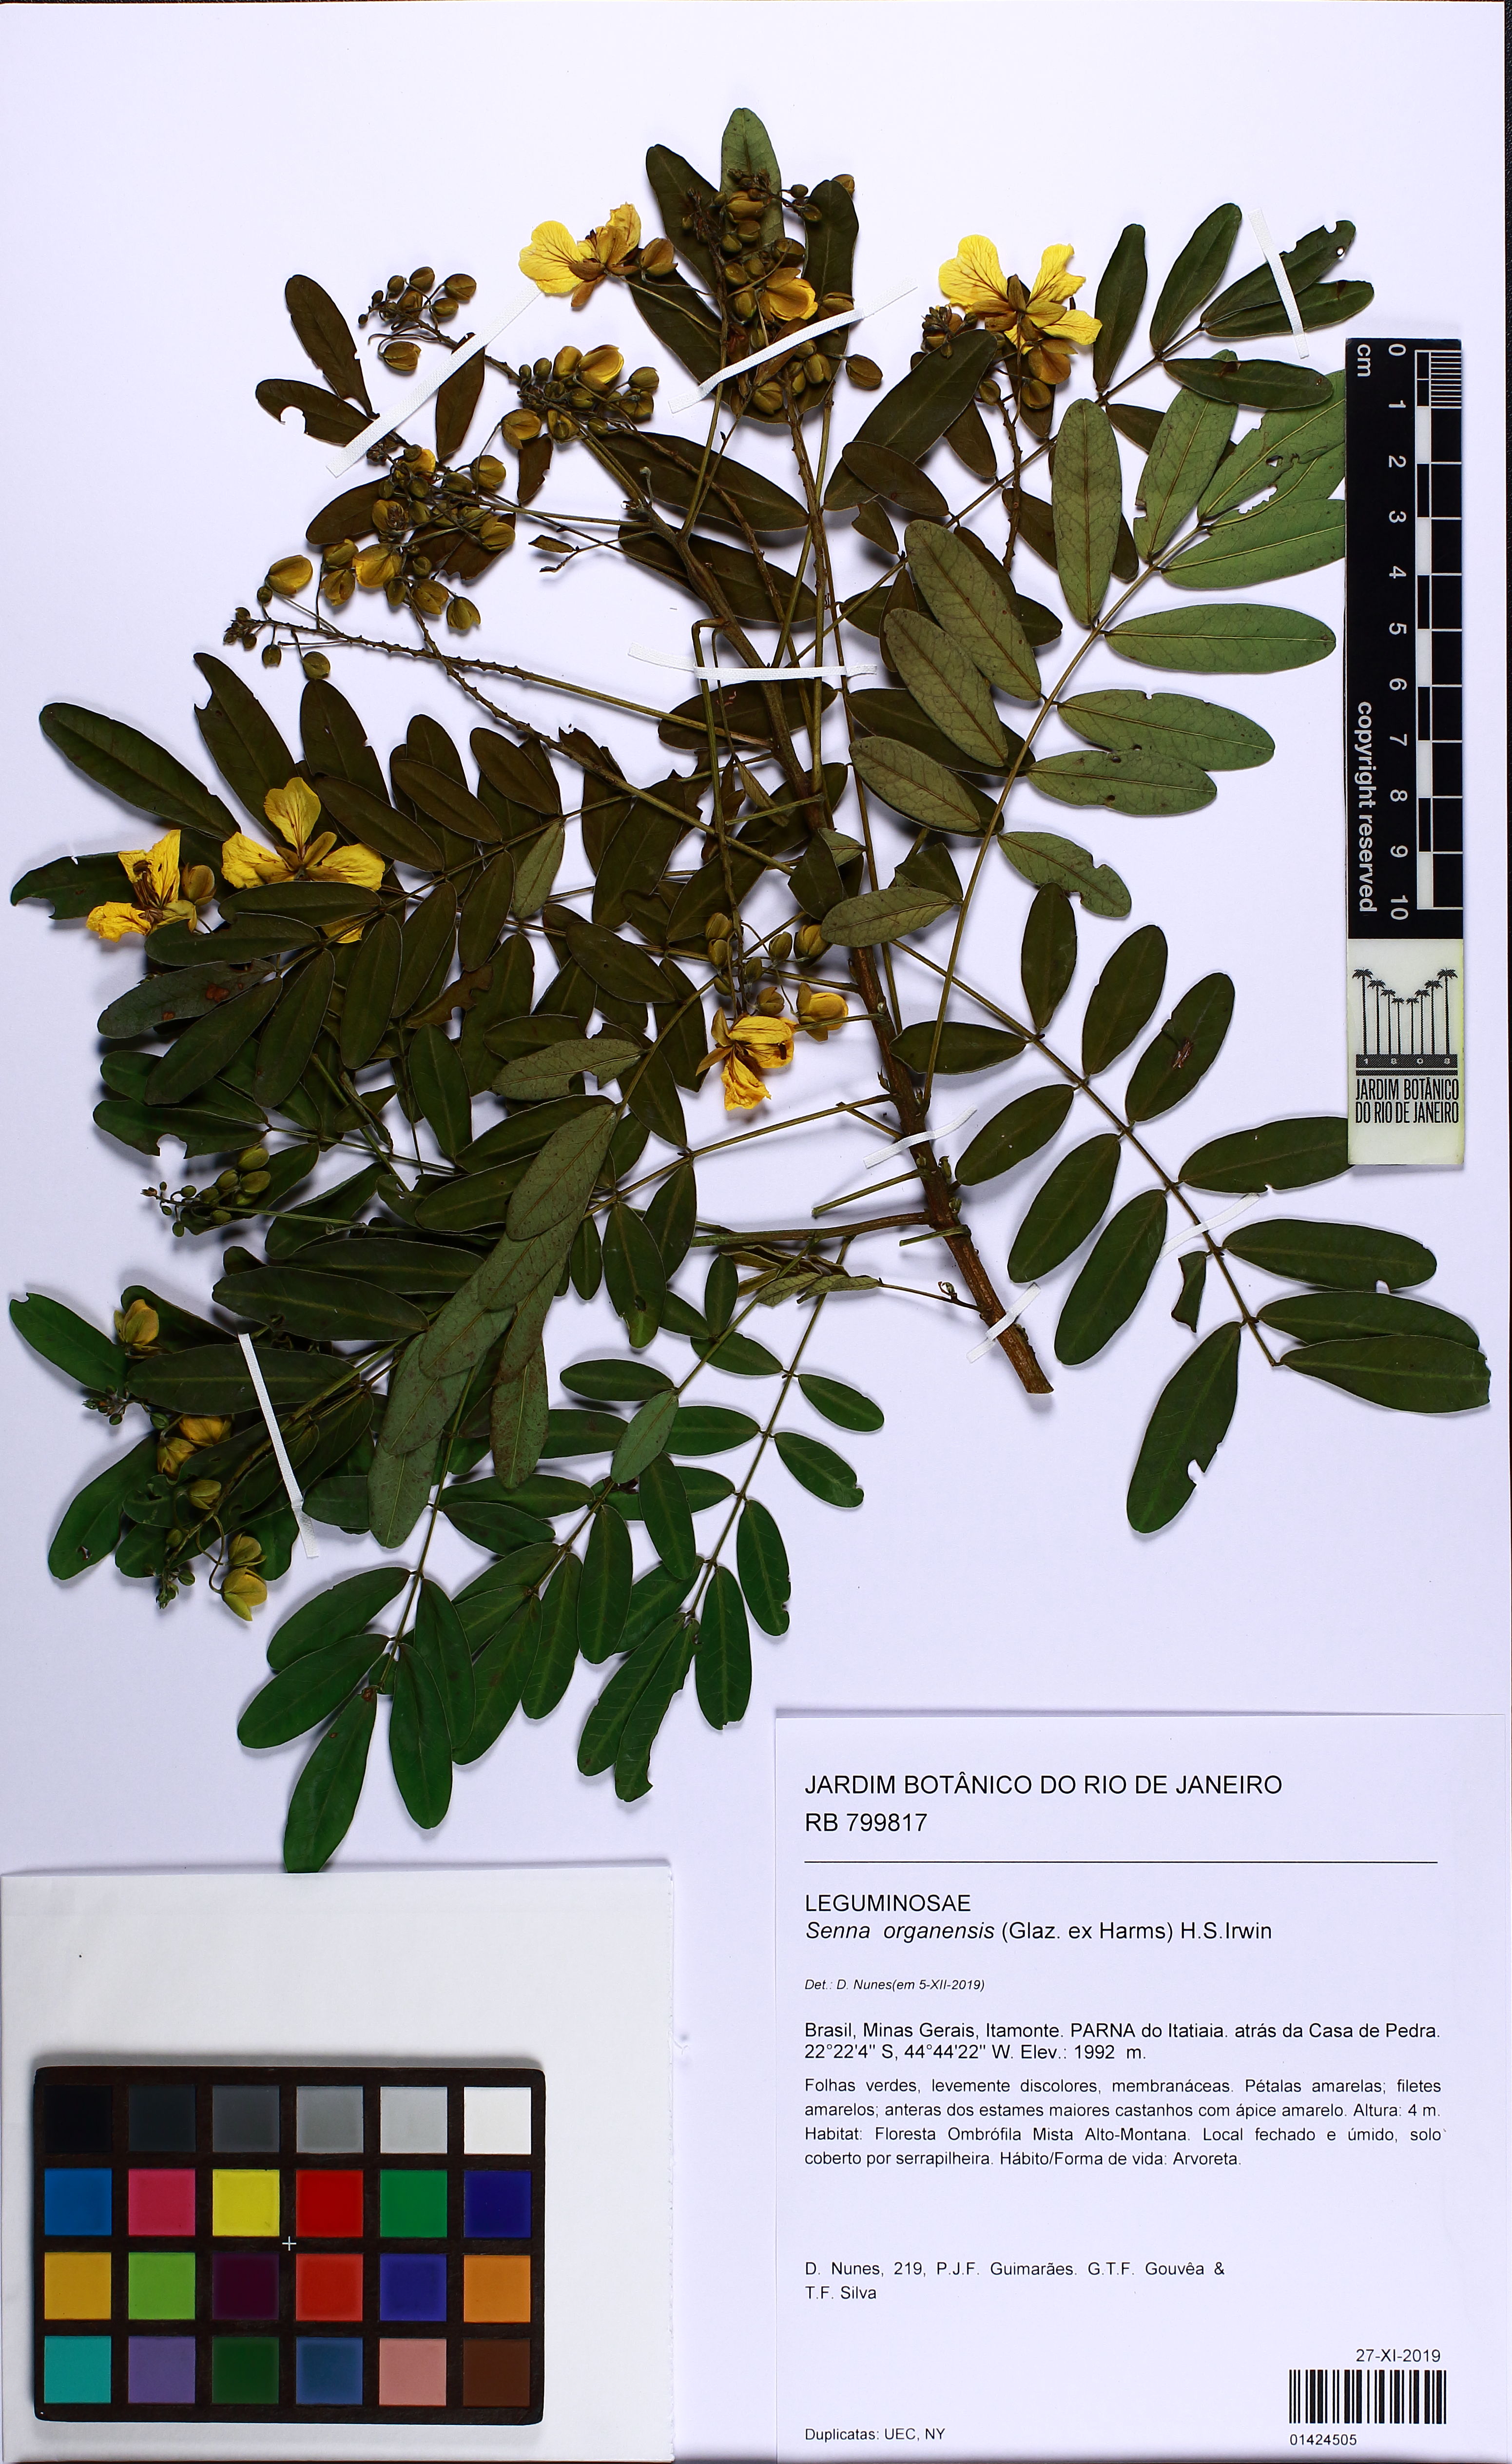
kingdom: Plantae
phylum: Tracheophyta
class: Magnoliopsida
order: Fabales
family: Fabaceae
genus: Senna
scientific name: Senna organensis
